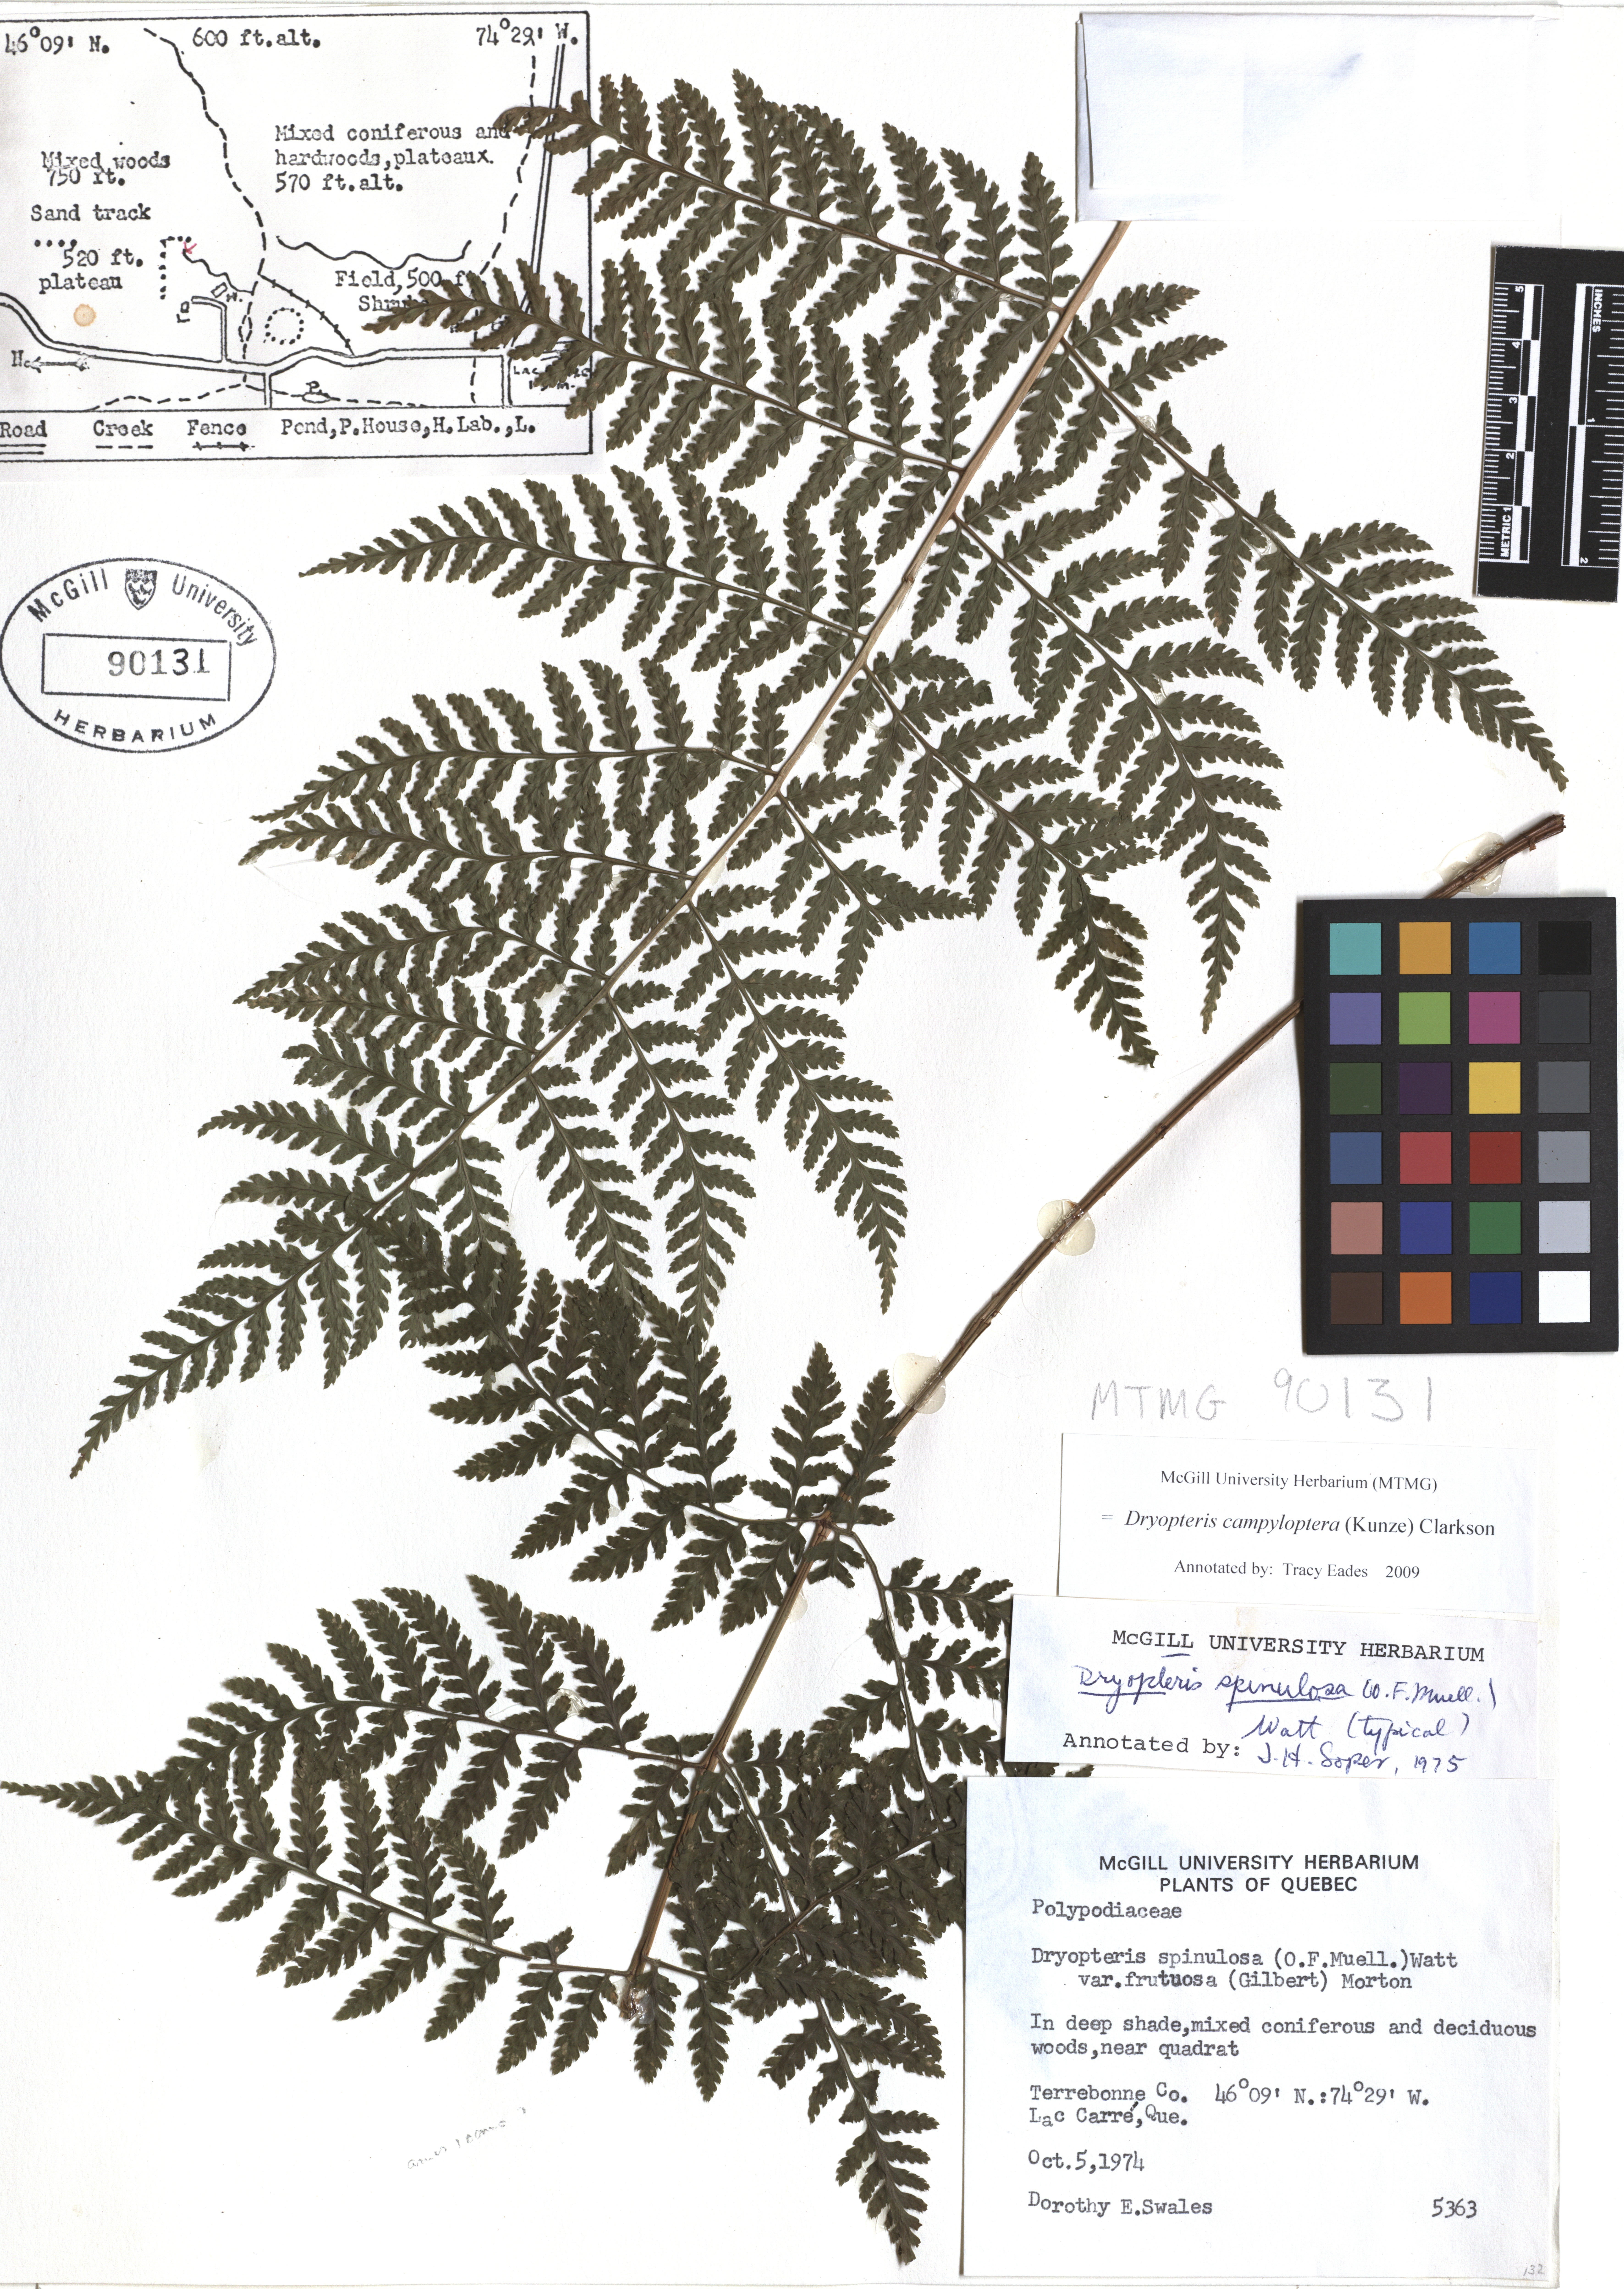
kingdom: Plantae
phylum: Tracheophyta
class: Polypodiopsida
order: Polypodiales
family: Dryopteridaceae
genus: Dryopteris
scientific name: Dryopteris campyloptera
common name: Mountain wood fern
